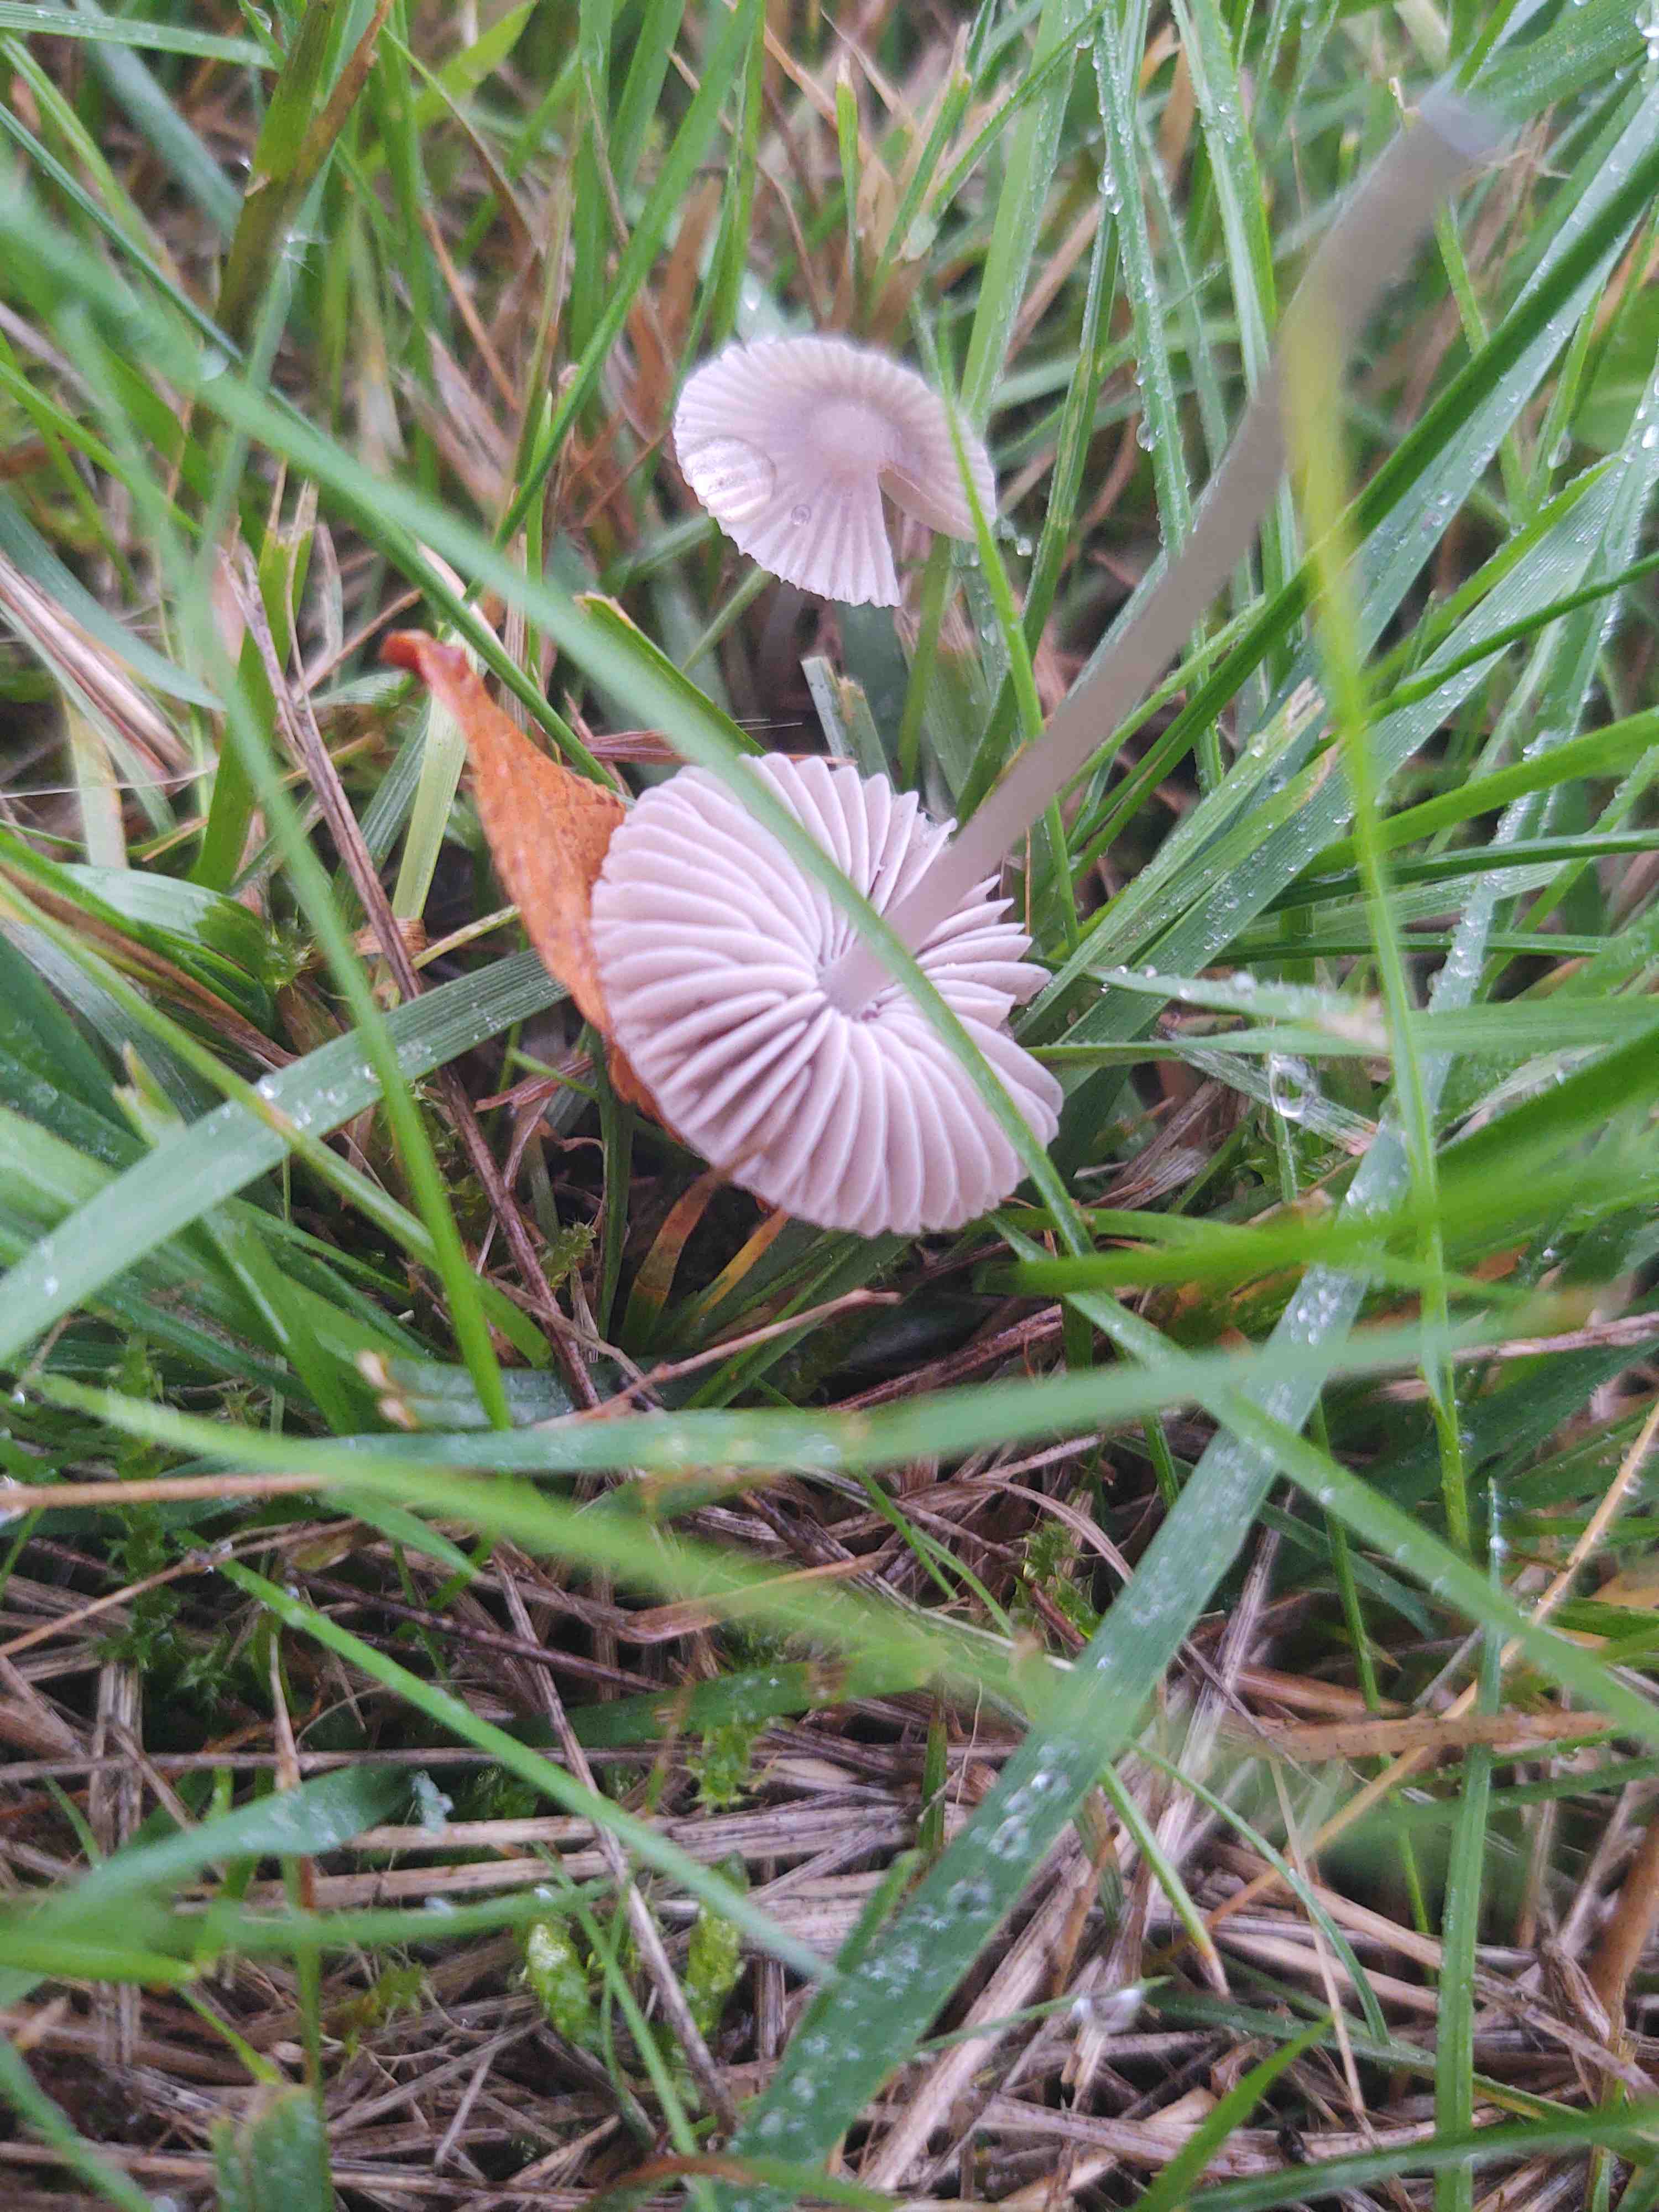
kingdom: Fungi
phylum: Basidiomycota
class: Agaricomycetes
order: Agaricales
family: Mycenaceae
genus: Mycena
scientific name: Mycena
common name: huesvamp
